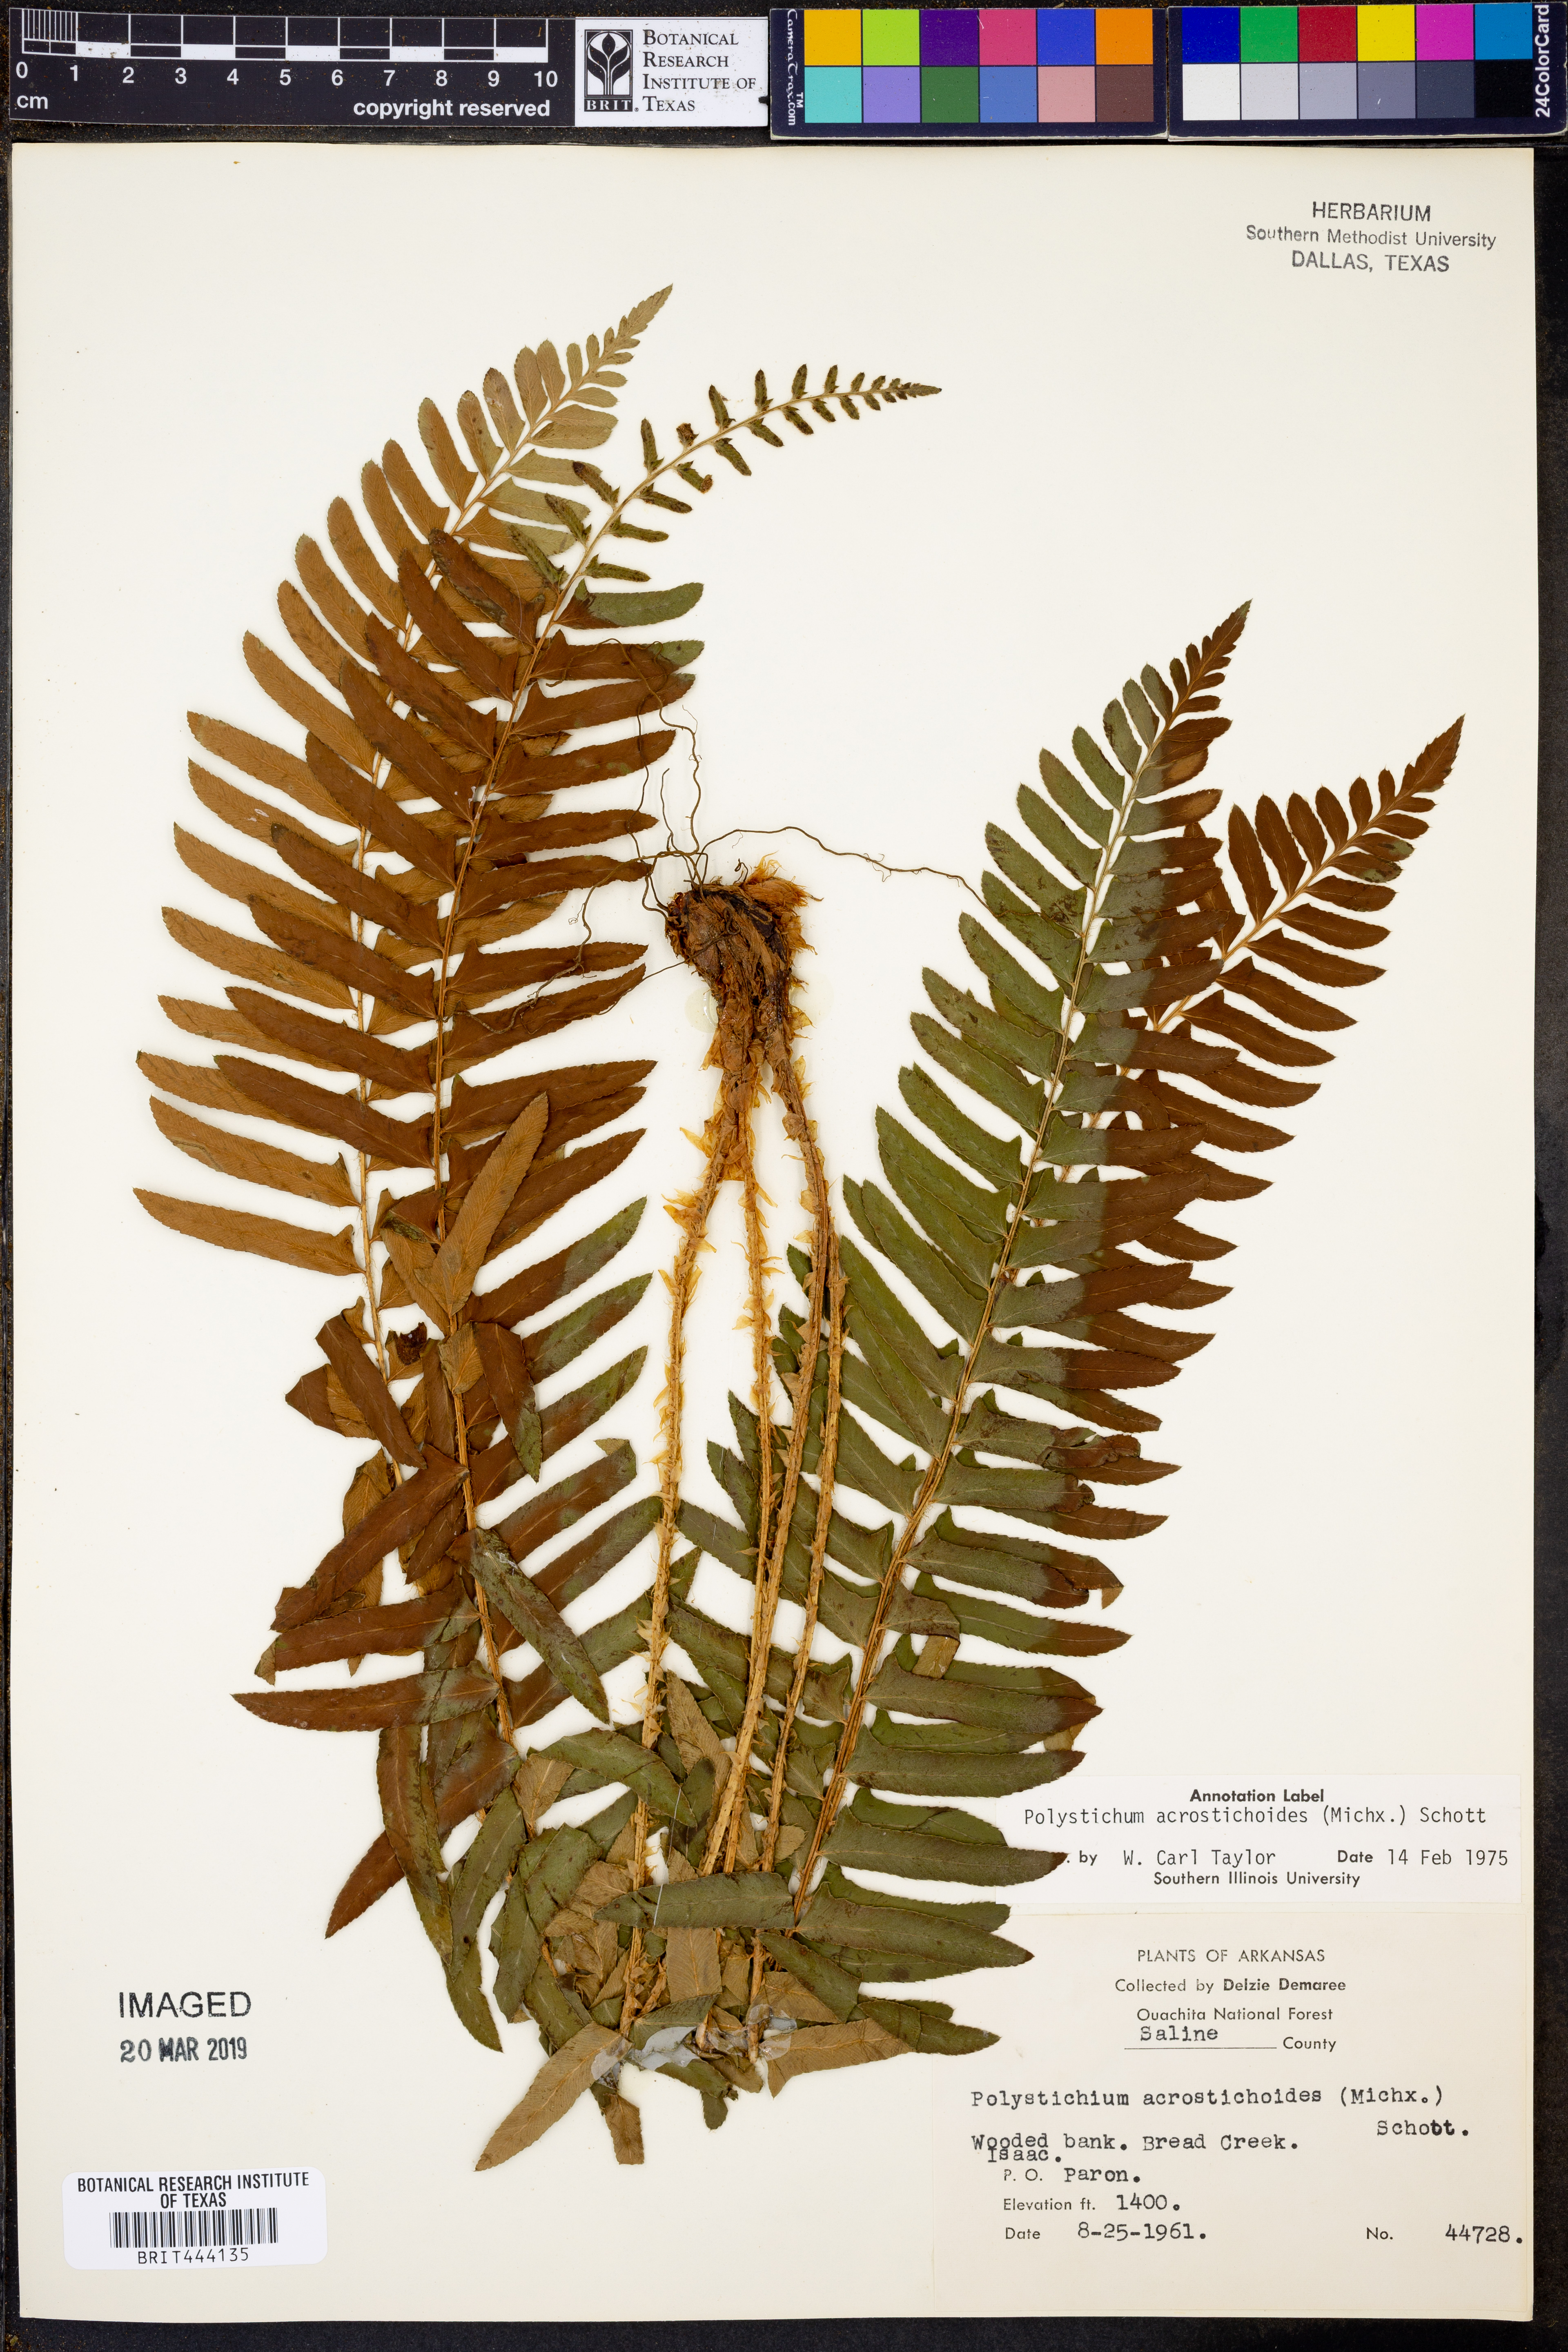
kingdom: Plantae
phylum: Tracheophyta
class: Polypodiopsida
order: Polypodiales
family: Dryopteridaceae
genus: Polystichum
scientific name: Polystichum acrostichoides
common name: Christmas fern
